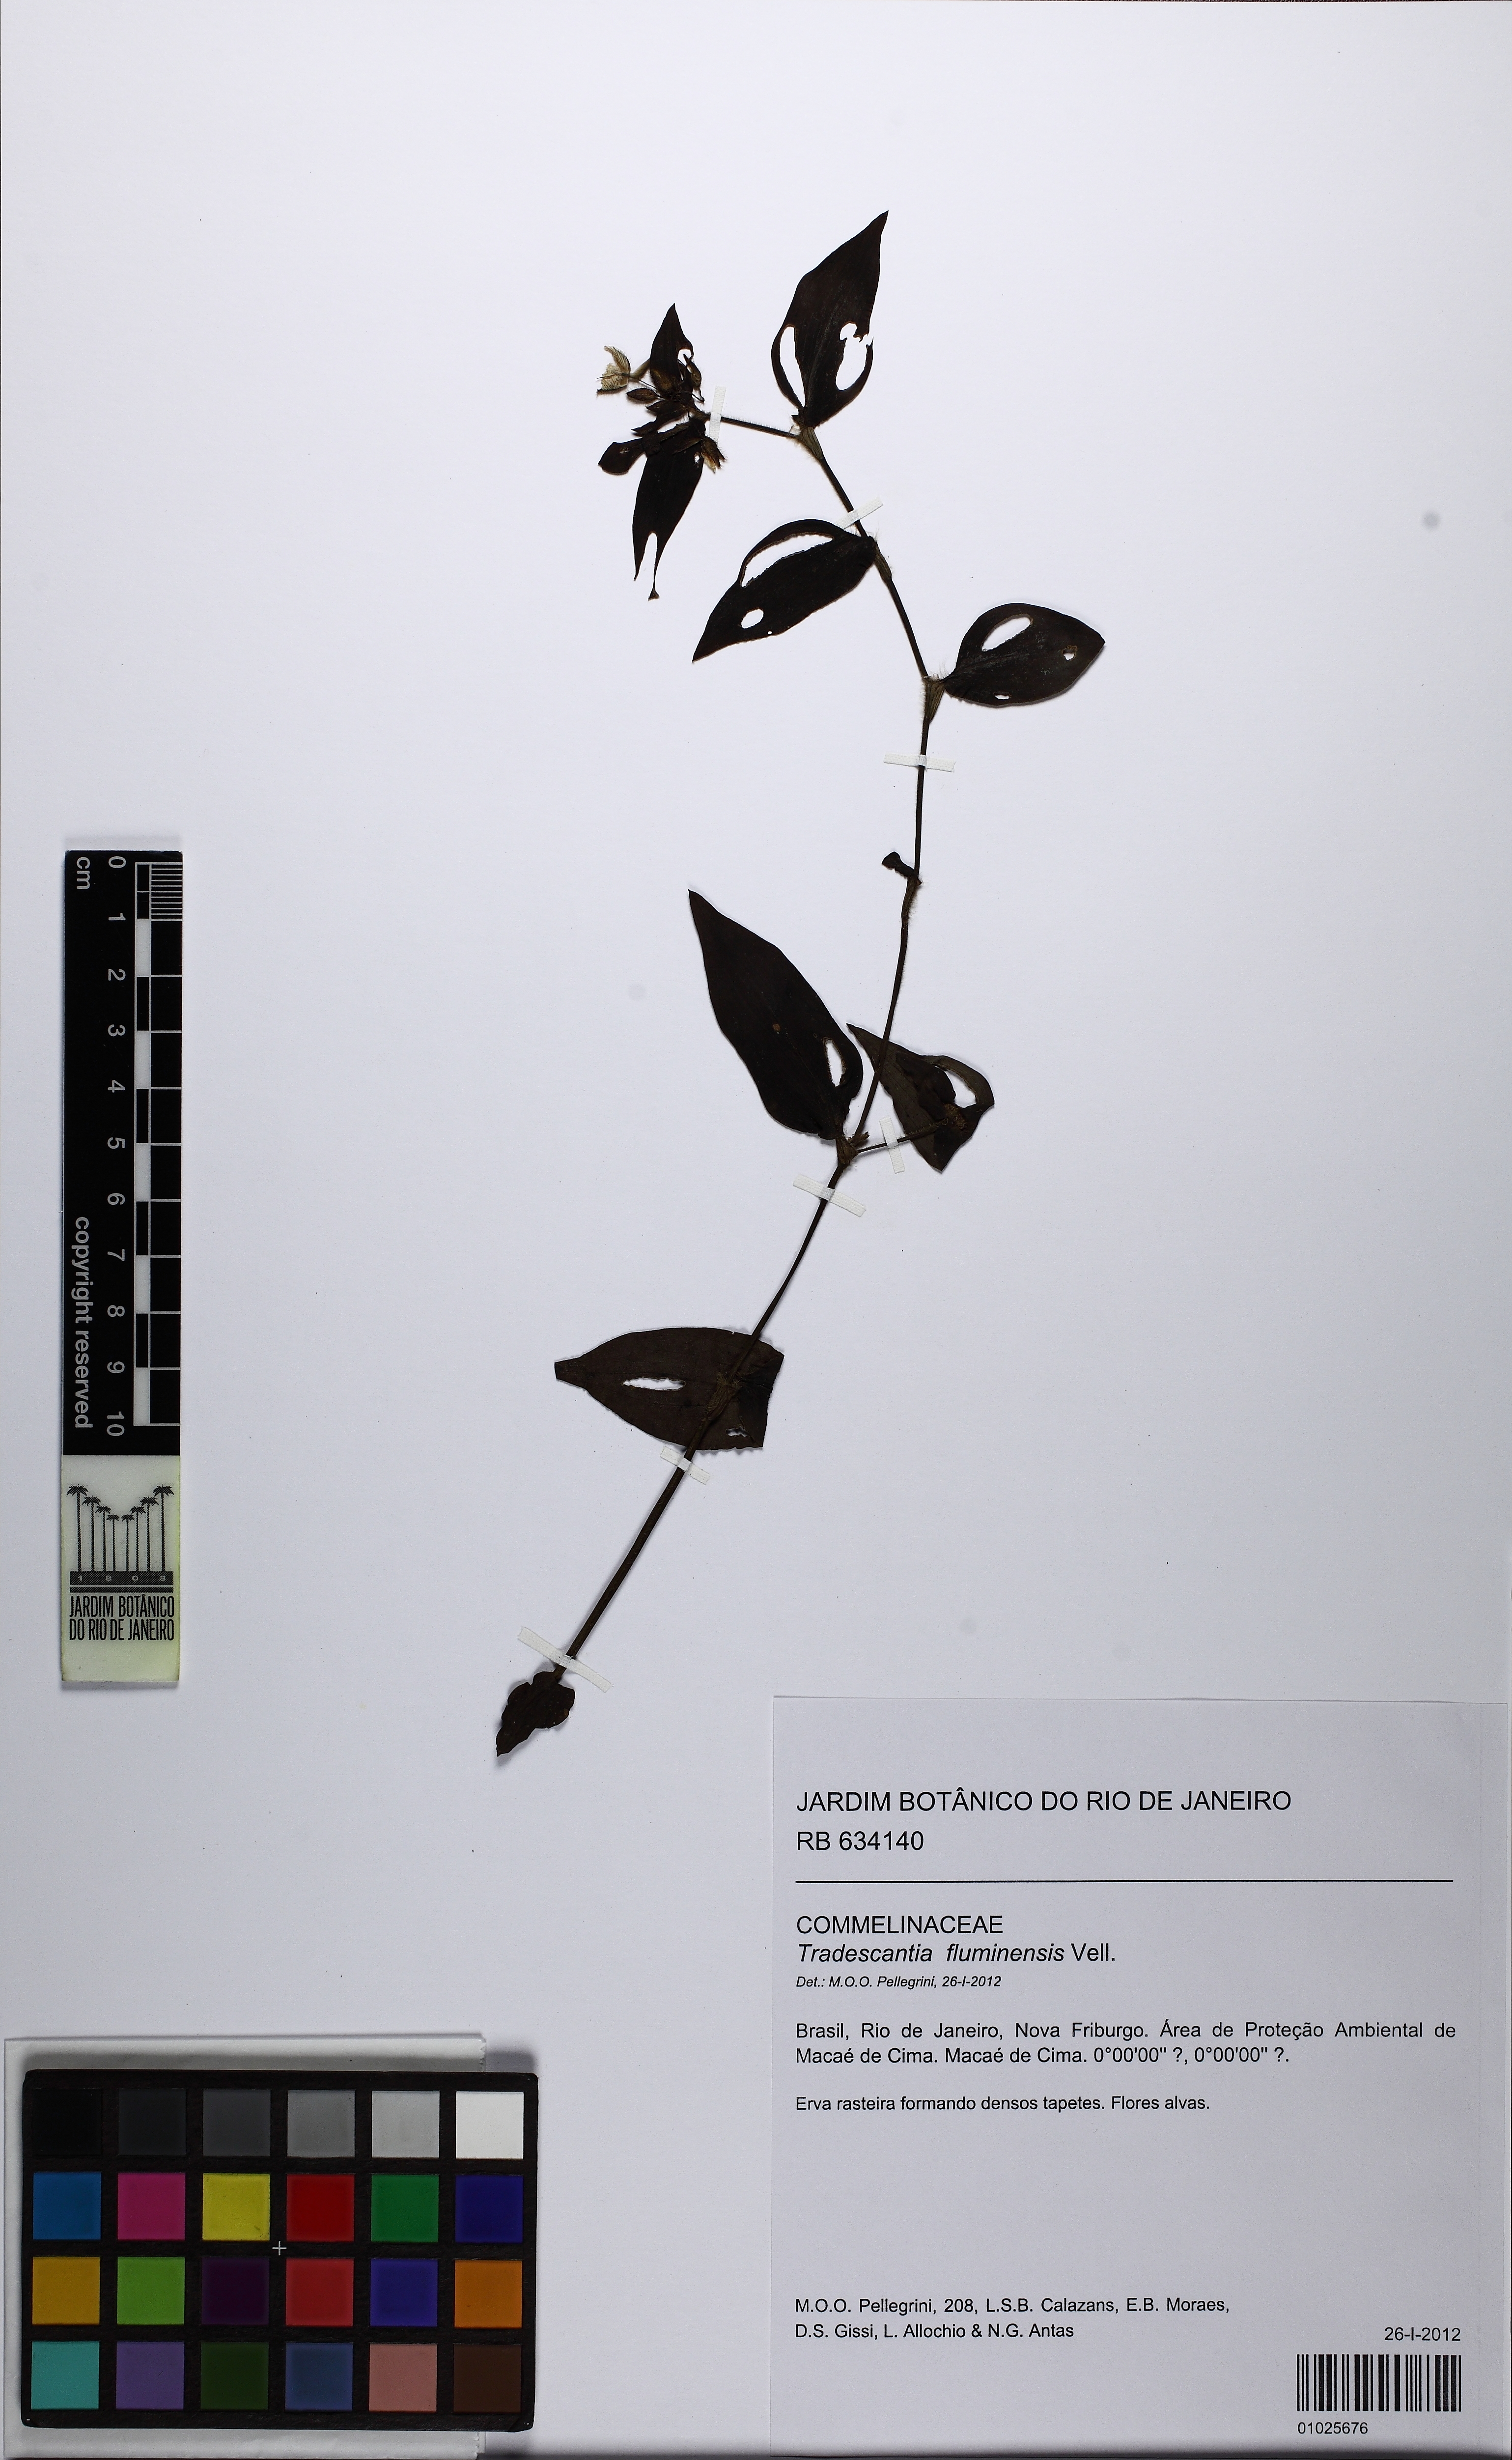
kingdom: Plantae
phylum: Tracheophyta
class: Liliopsida
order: Commelinales
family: Commelinaceae
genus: Tradescantia
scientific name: Tradescantia fluminensis
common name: Wandering-jew
